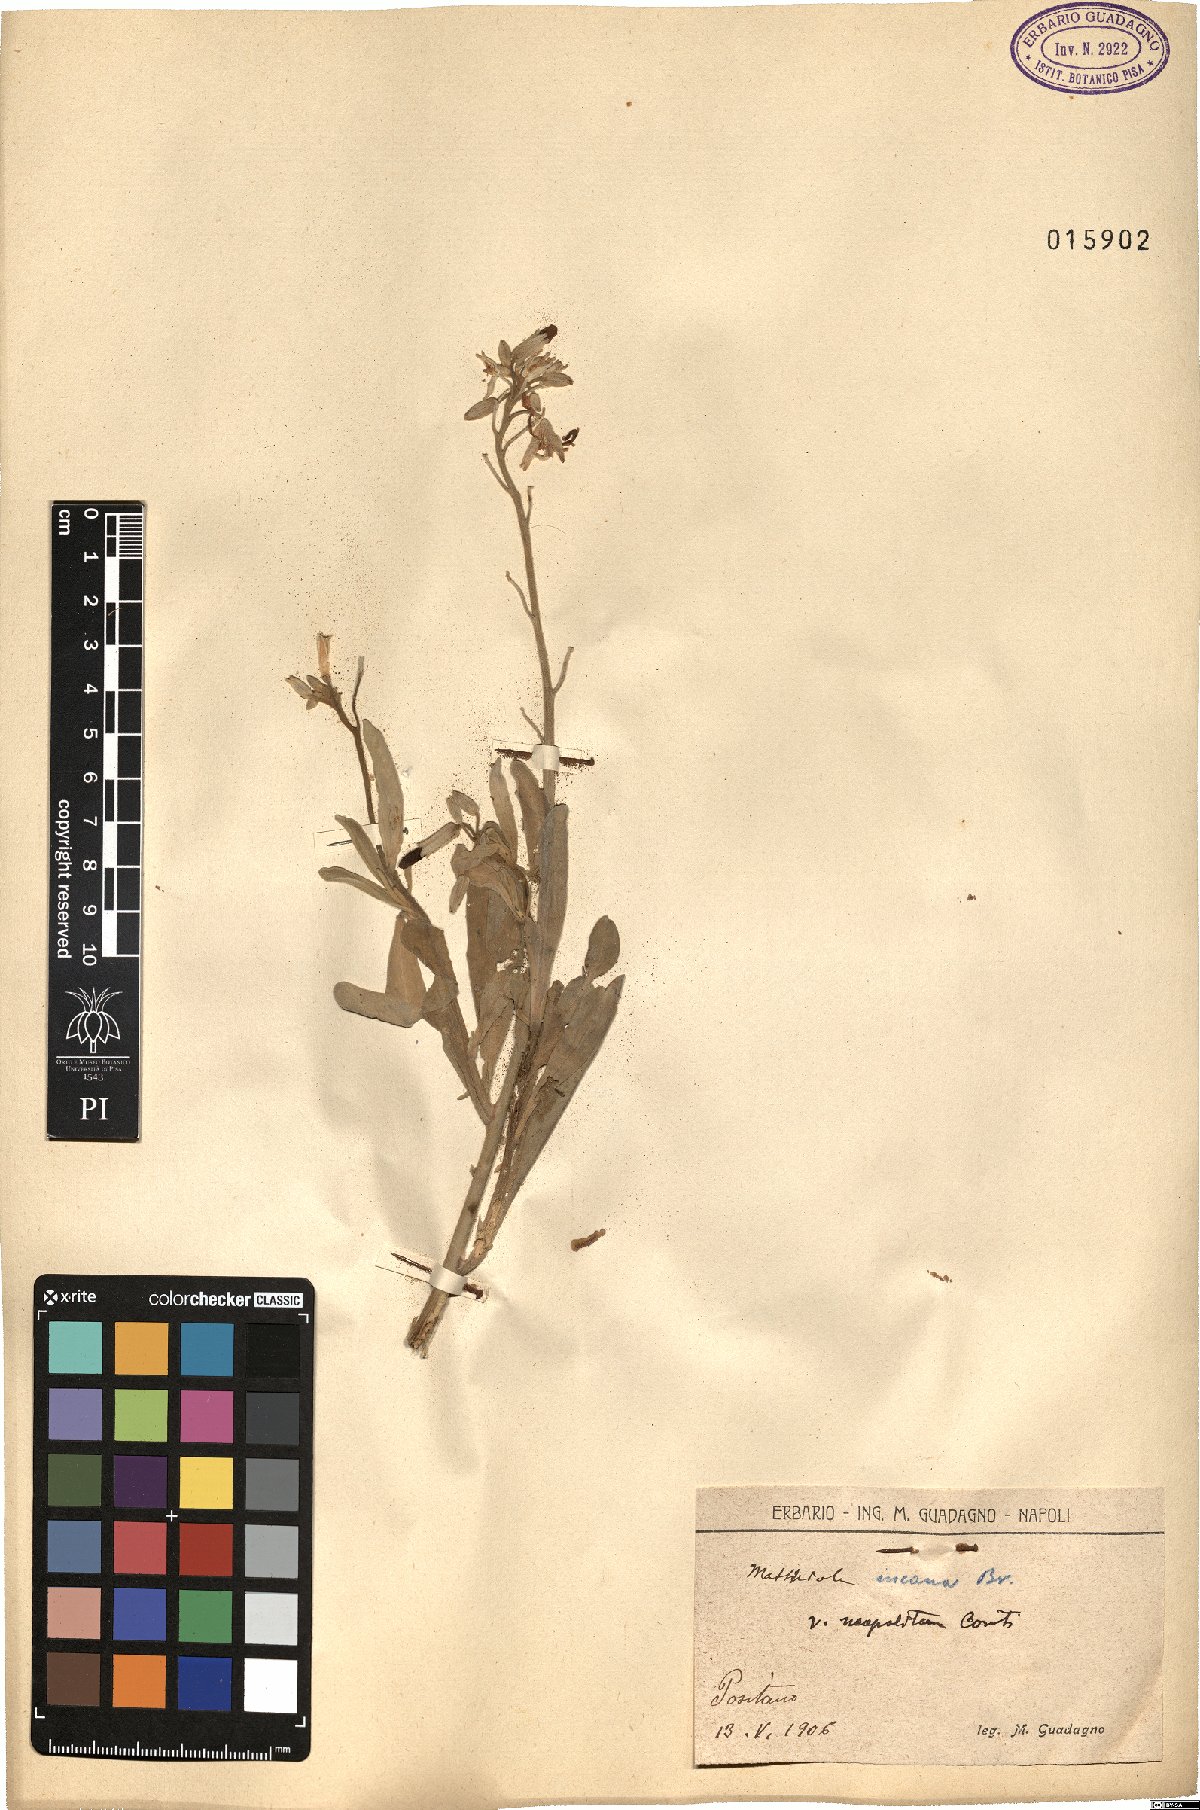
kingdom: Plantae
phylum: Tracheophyta
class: Magnoliopsida
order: Brassicales
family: Brassicaceae
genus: Matthiola
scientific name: Matthiola incana
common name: Hoary stock
